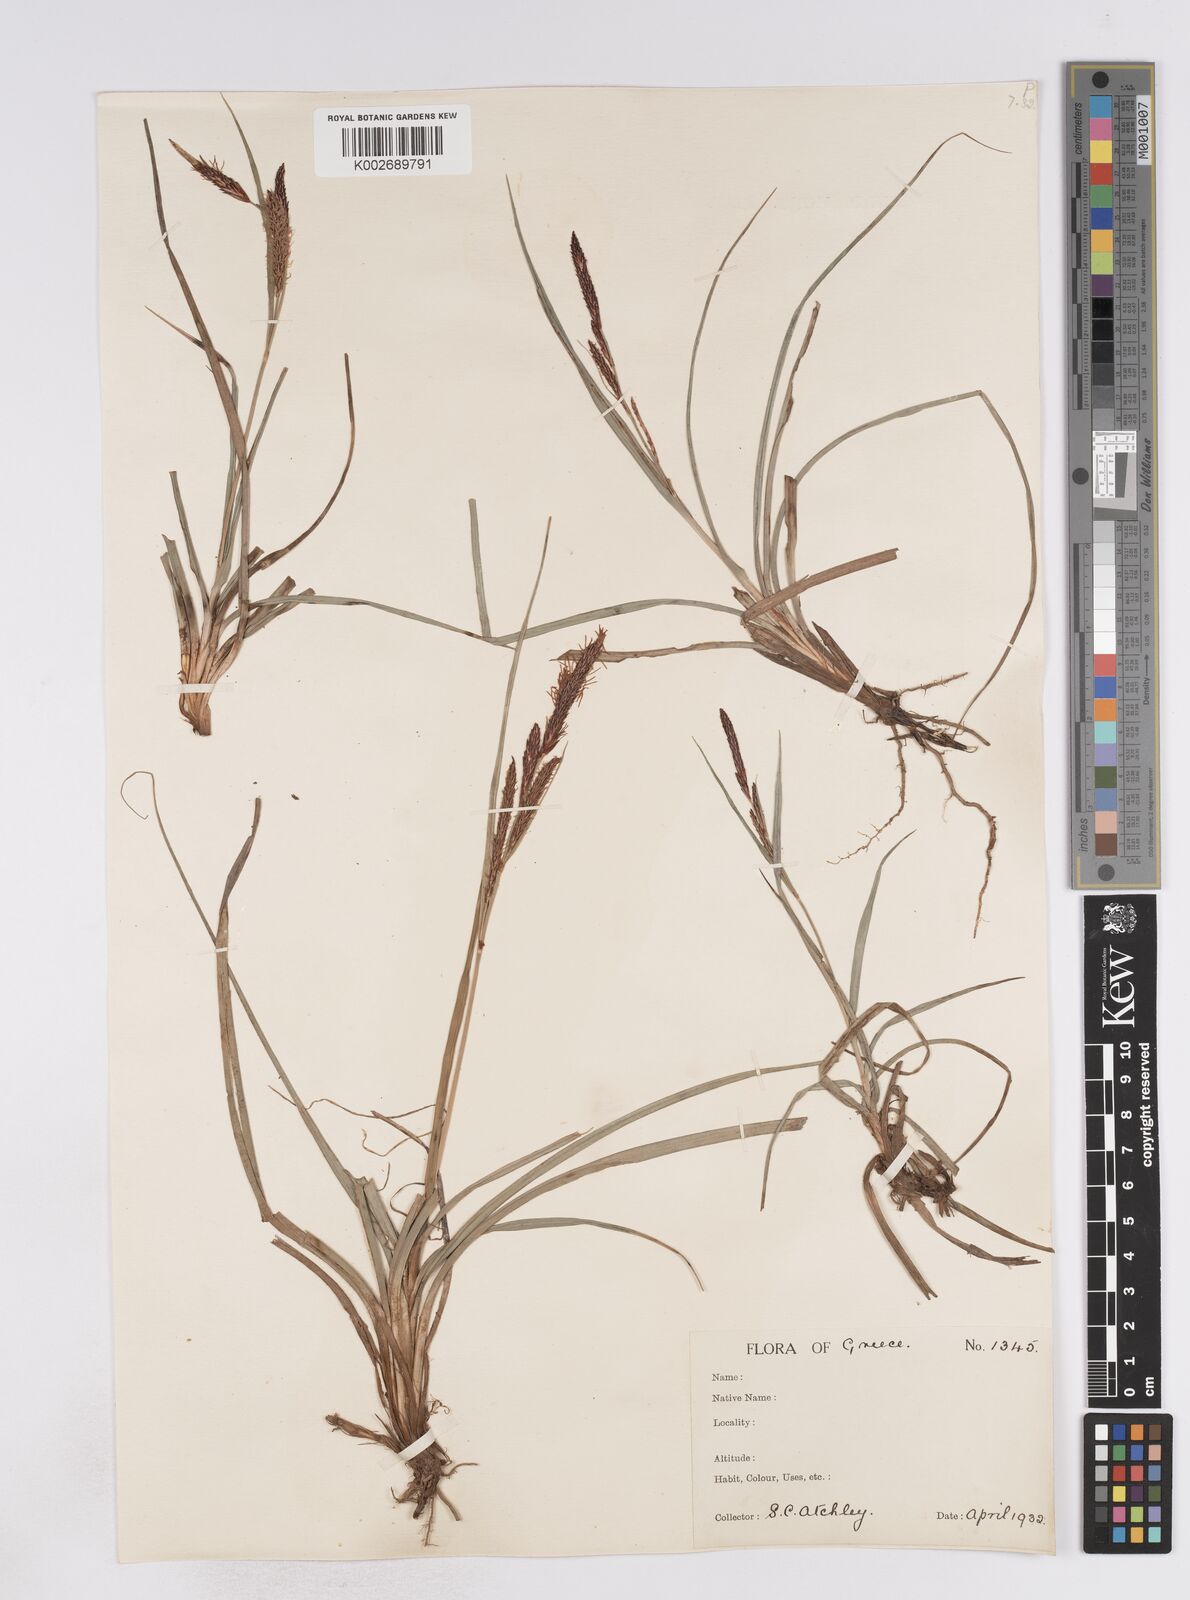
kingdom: Plantae
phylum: Tracheophyta
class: Liliopsida
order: Poales
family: Cyperaceae
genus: Carex
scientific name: Carex flacca
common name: Glaucous sedge
